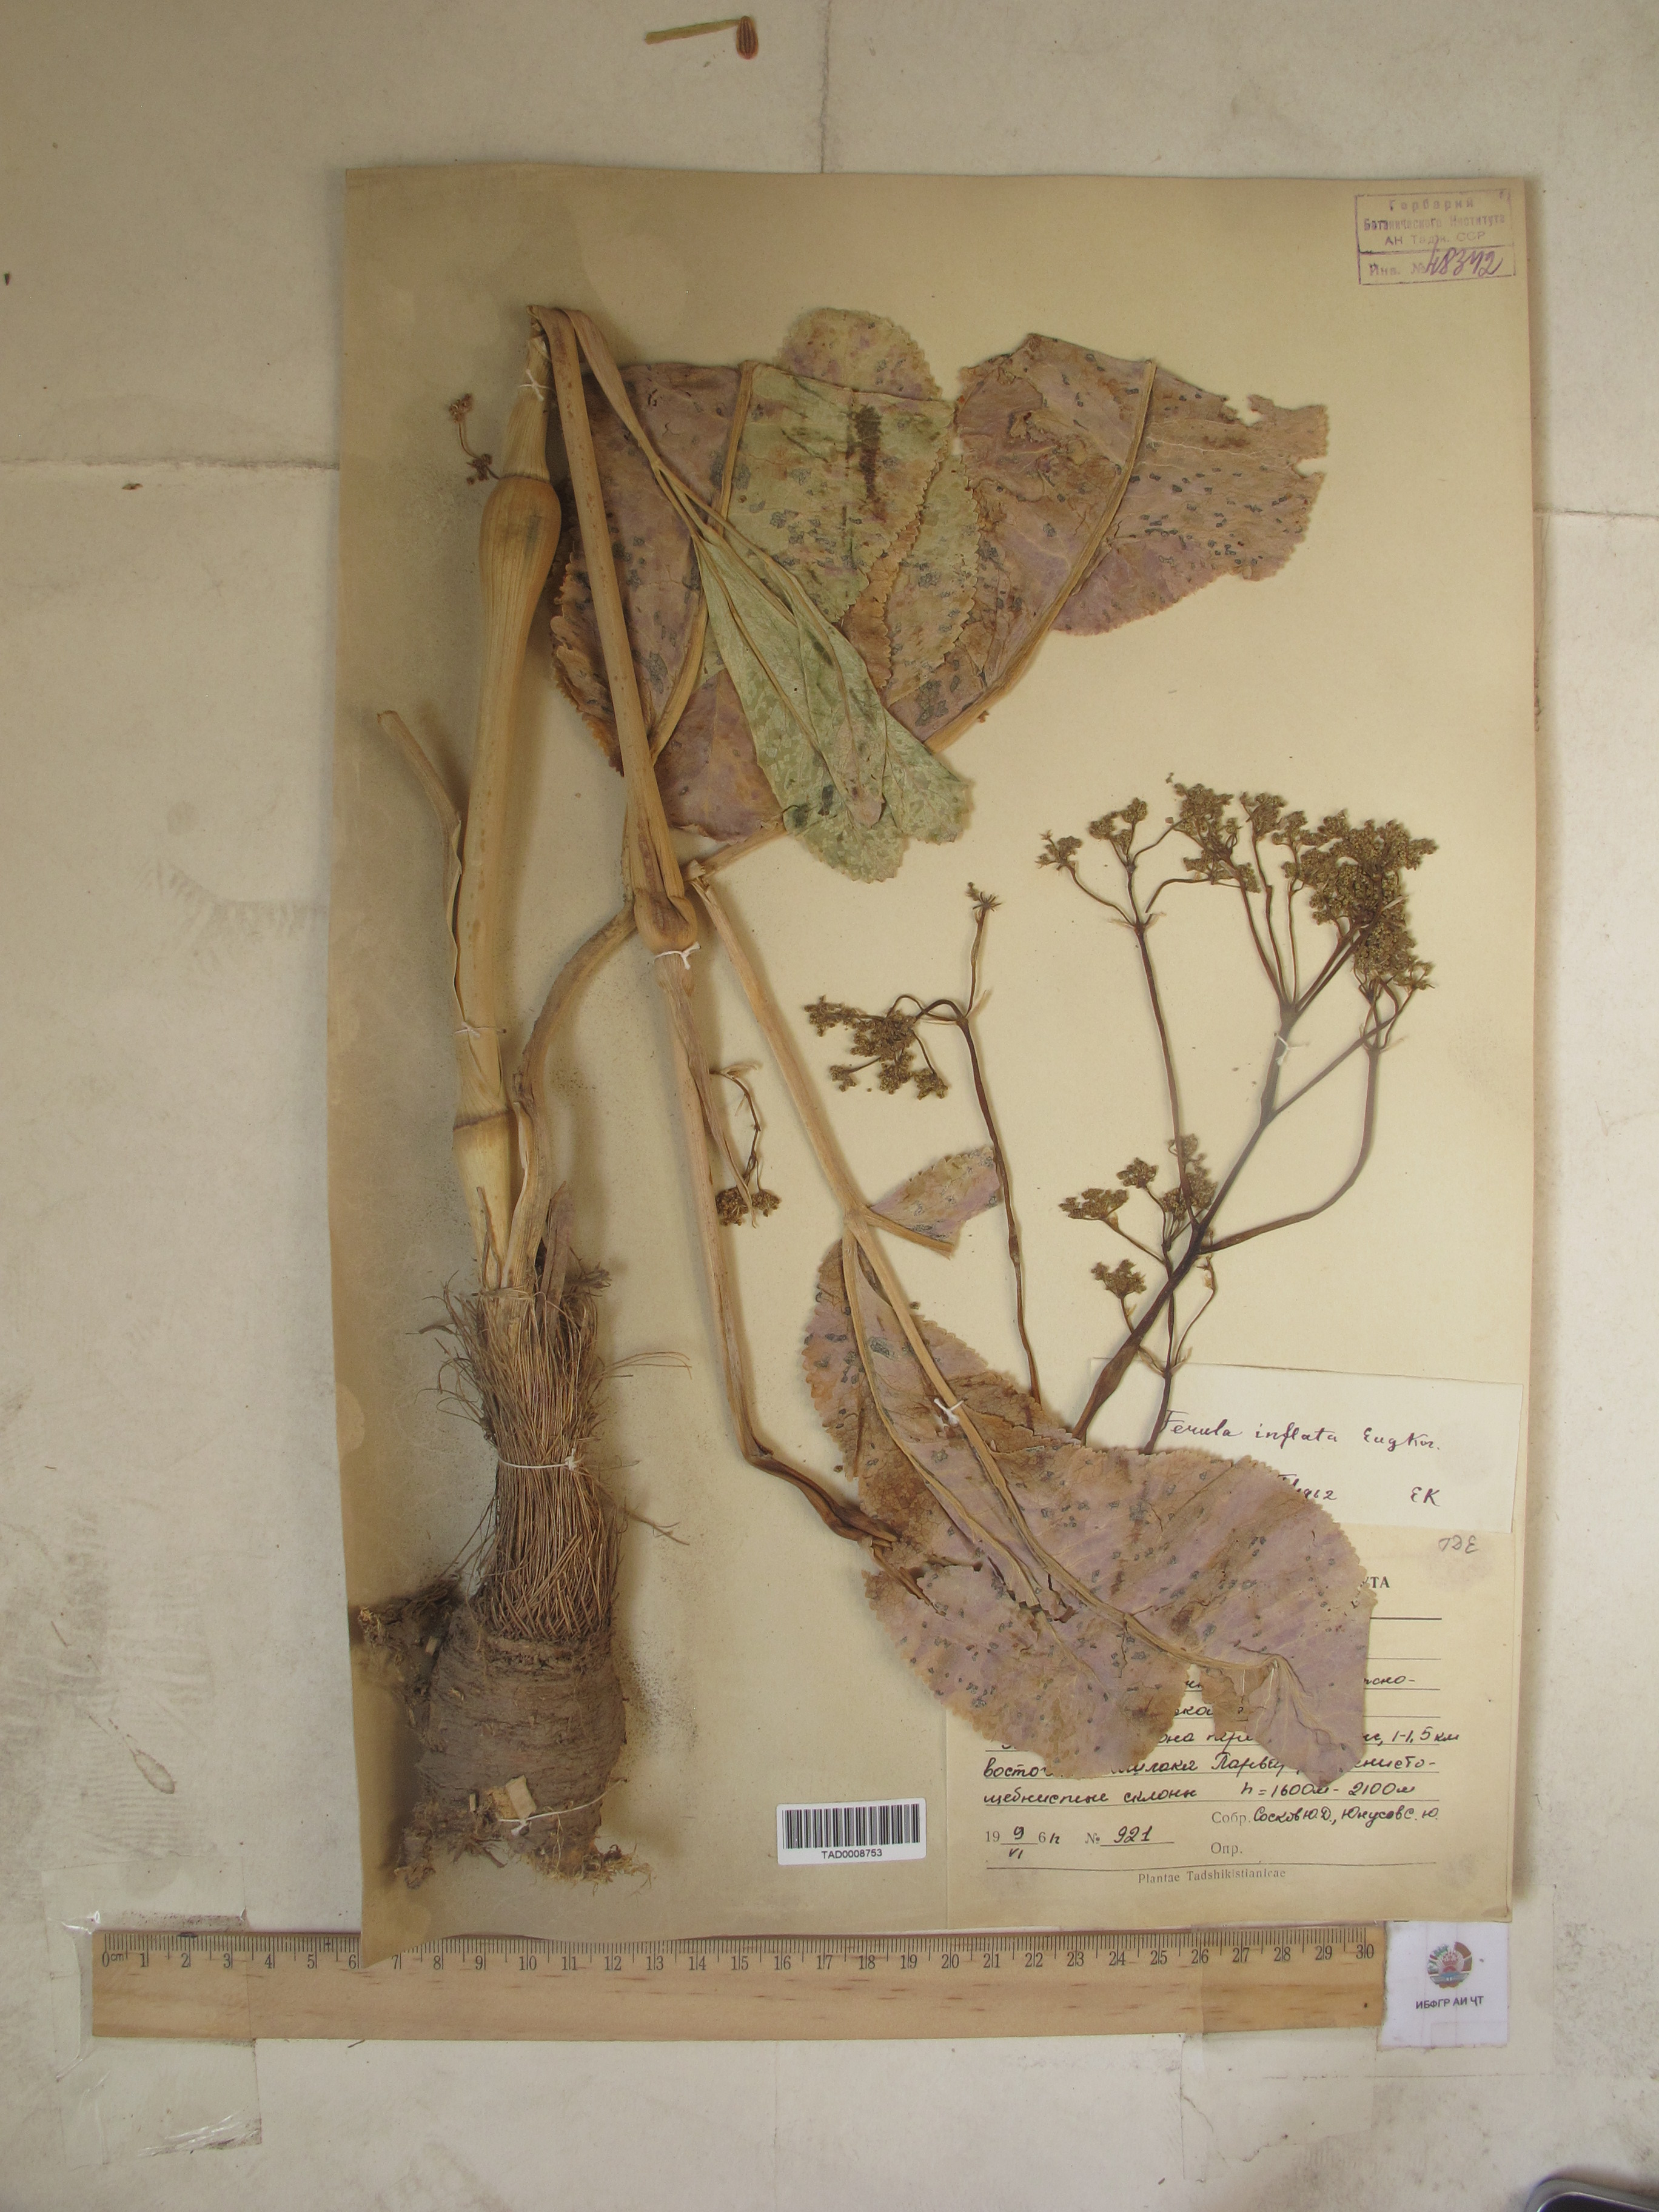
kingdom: Plantae
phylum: Tracheophyta
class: Magnoliopsida
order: Apiales
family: Apiaceae
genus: Ferula
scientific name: Ferula gigantea
